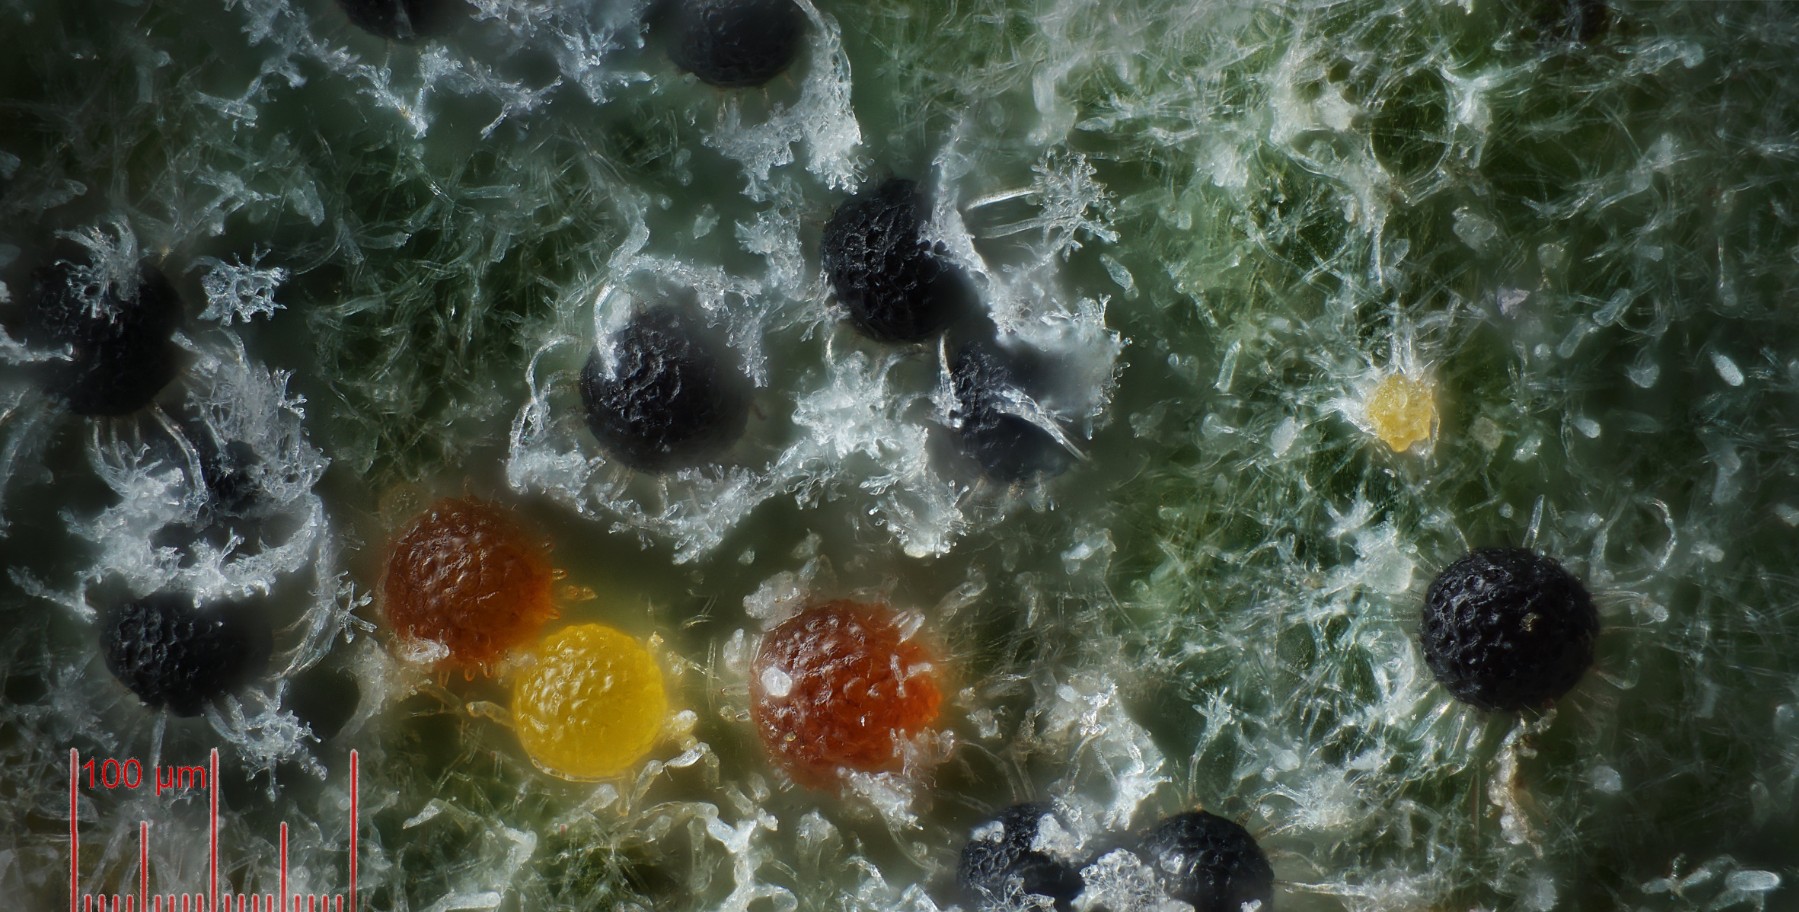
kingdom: Fungi
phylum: Ascomycota
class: Leotiomycetes
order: Helotiales
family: Erysiphaceae
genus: Erysiphe
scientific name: Erysiphe vanbruntiana
